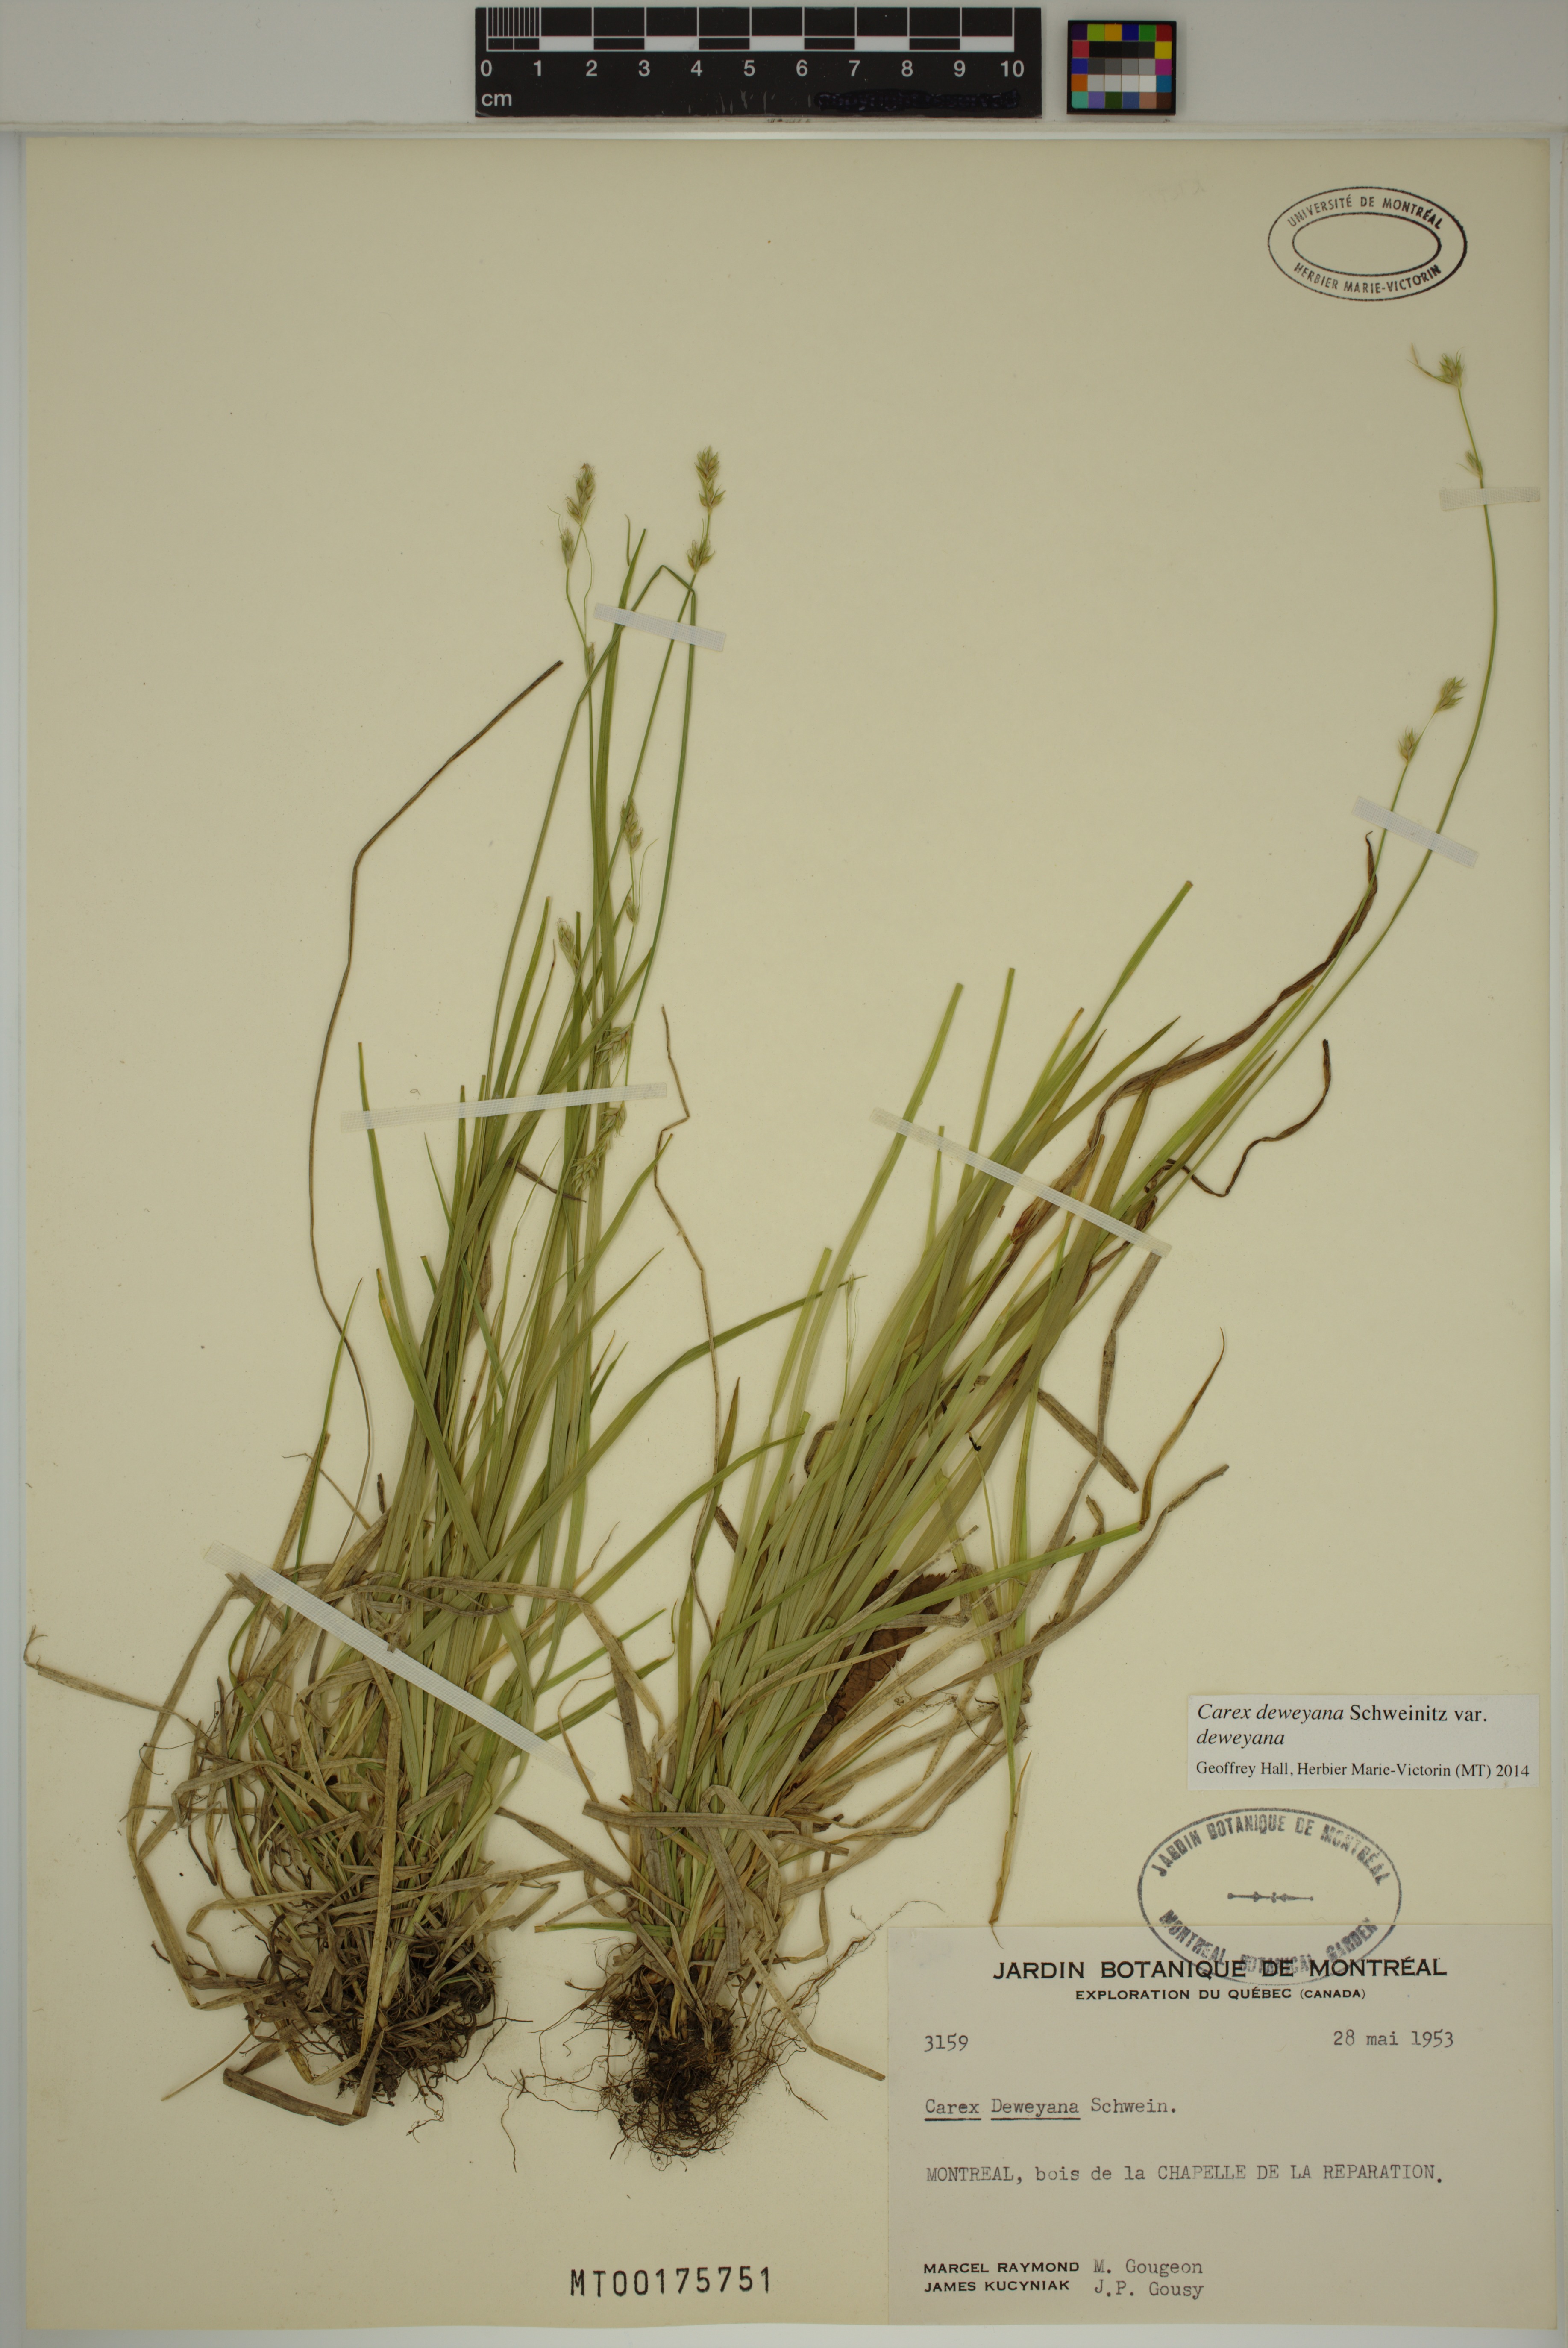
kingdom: Plantae
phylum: Tracheophyta
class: Liliopsida
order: Poales
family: Cyperaceae
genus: Carex
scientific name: Carex deweyana
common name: Dewey's sedge
